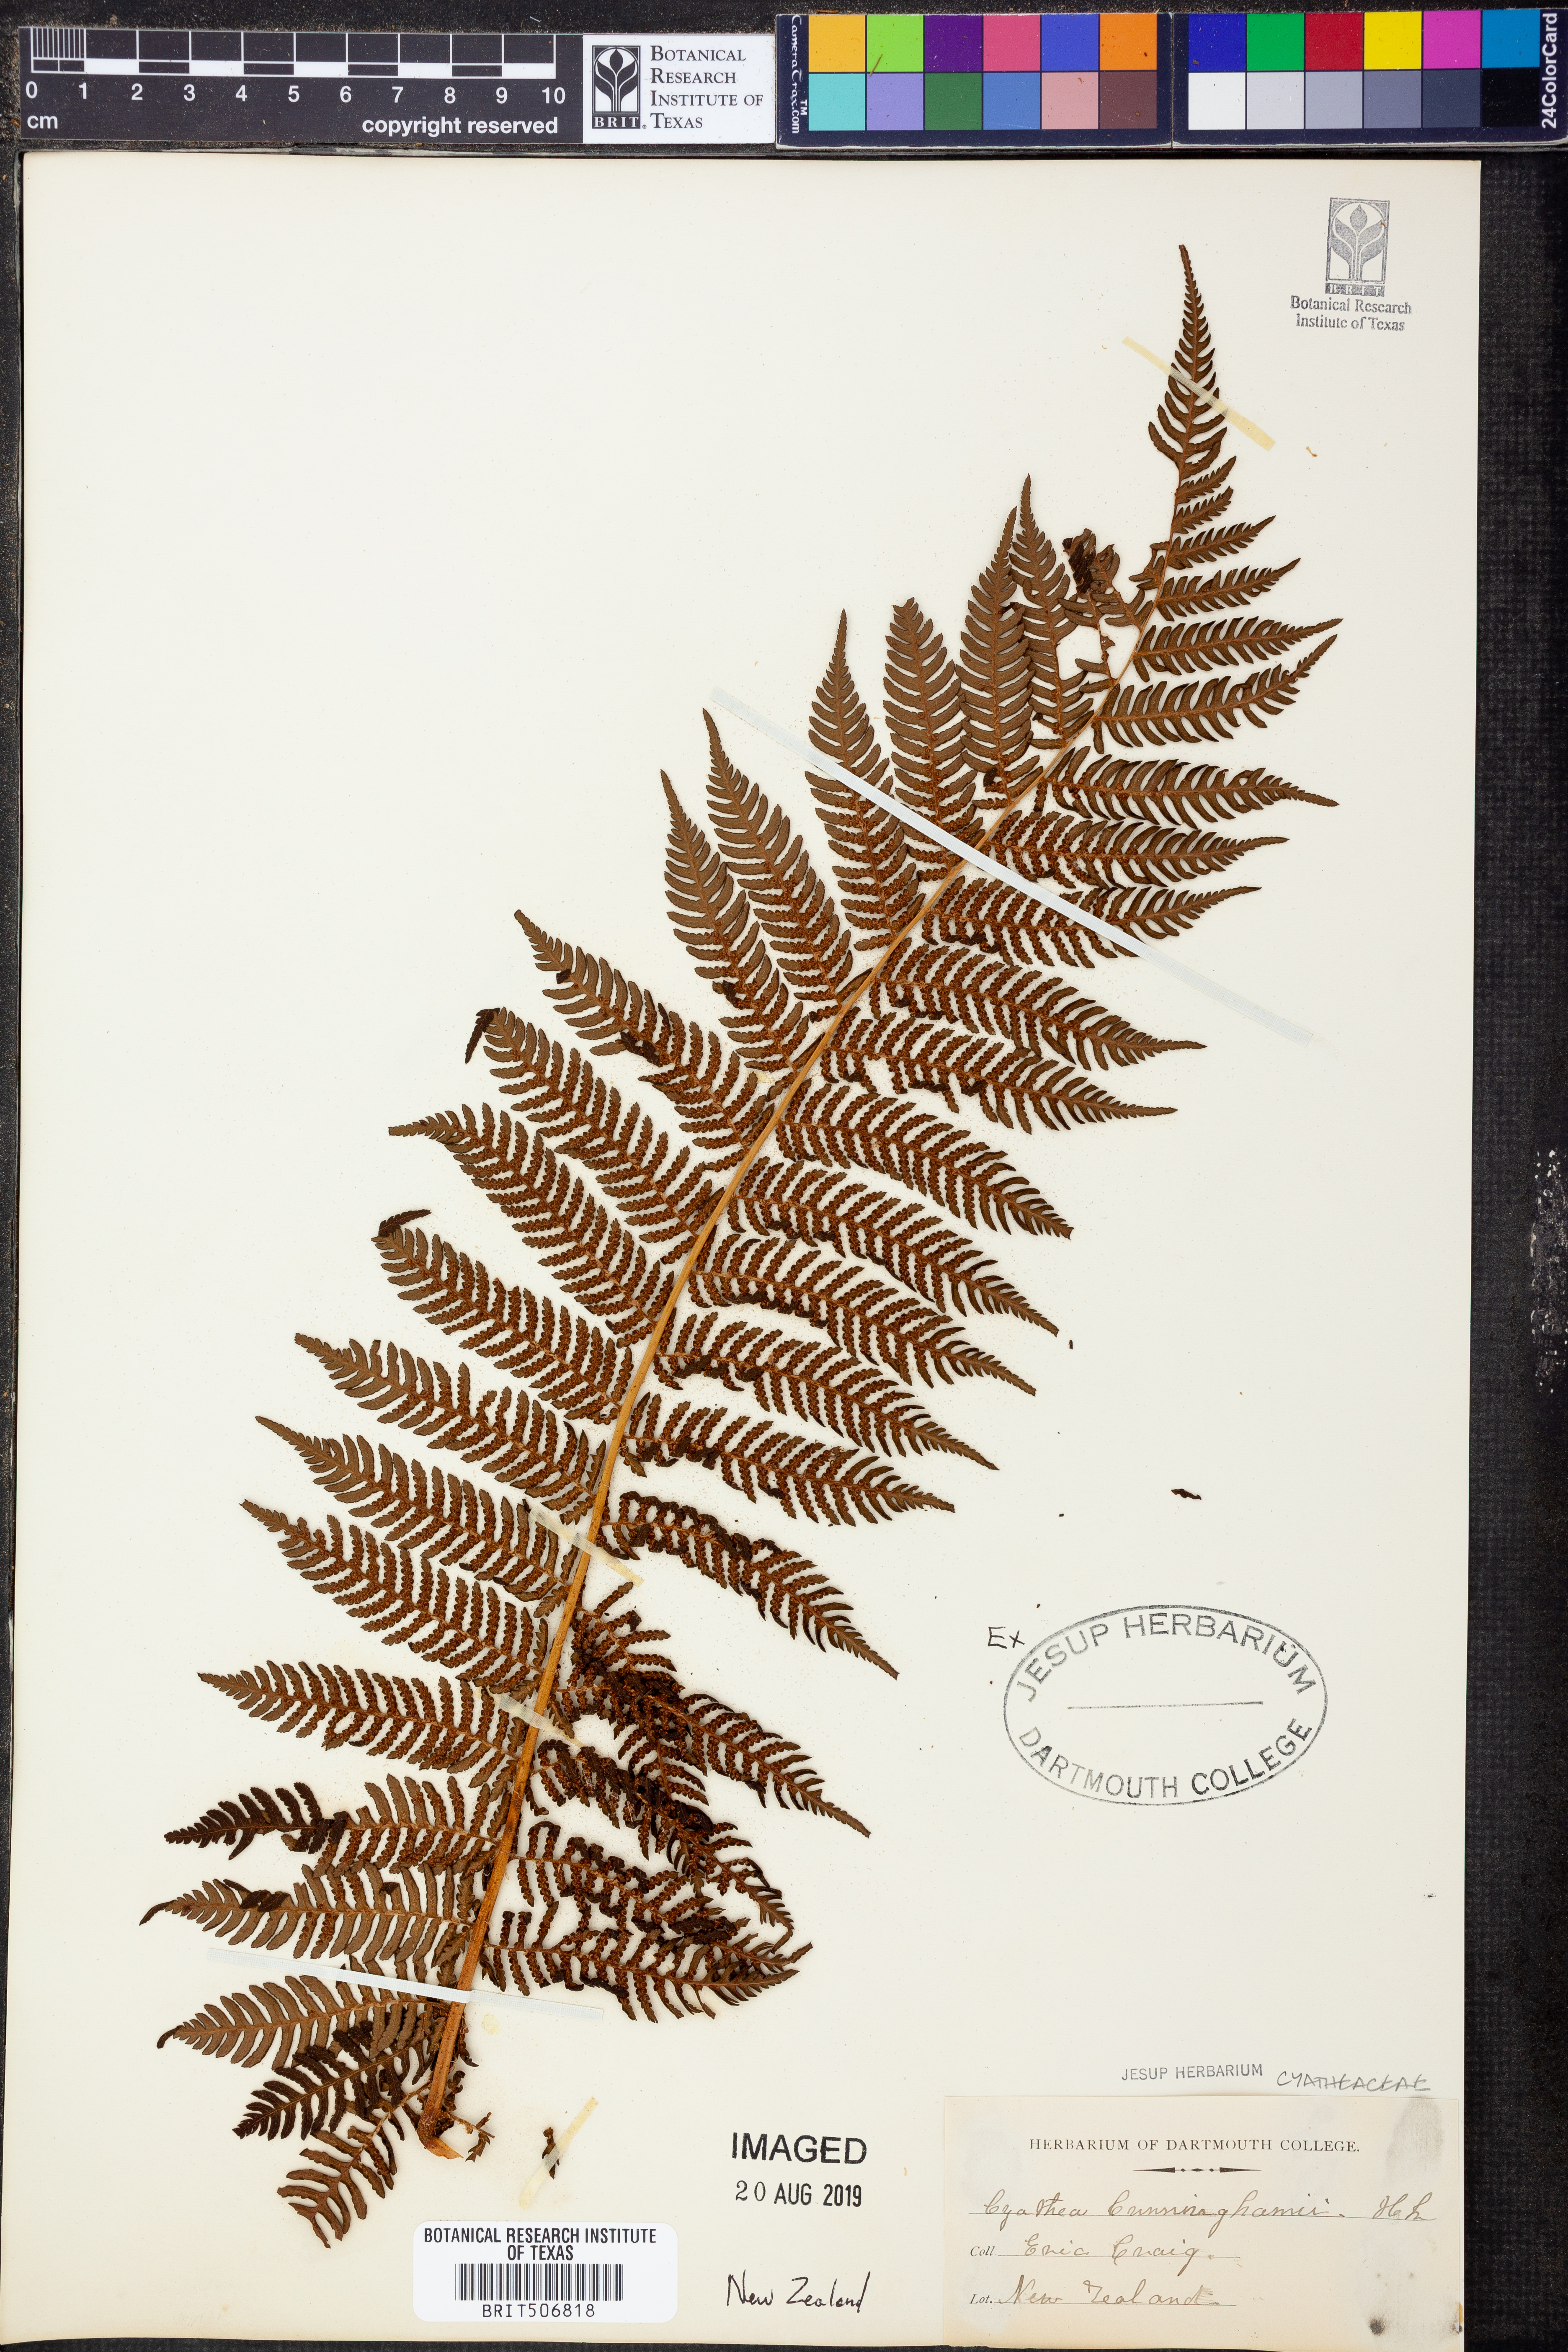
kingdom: Plantae
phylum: Tracheophyta
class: Polypodiopsida
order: Cyatheales
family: Cyatheaceae
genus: Alsophila
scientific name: Alsophila cunninghamii
